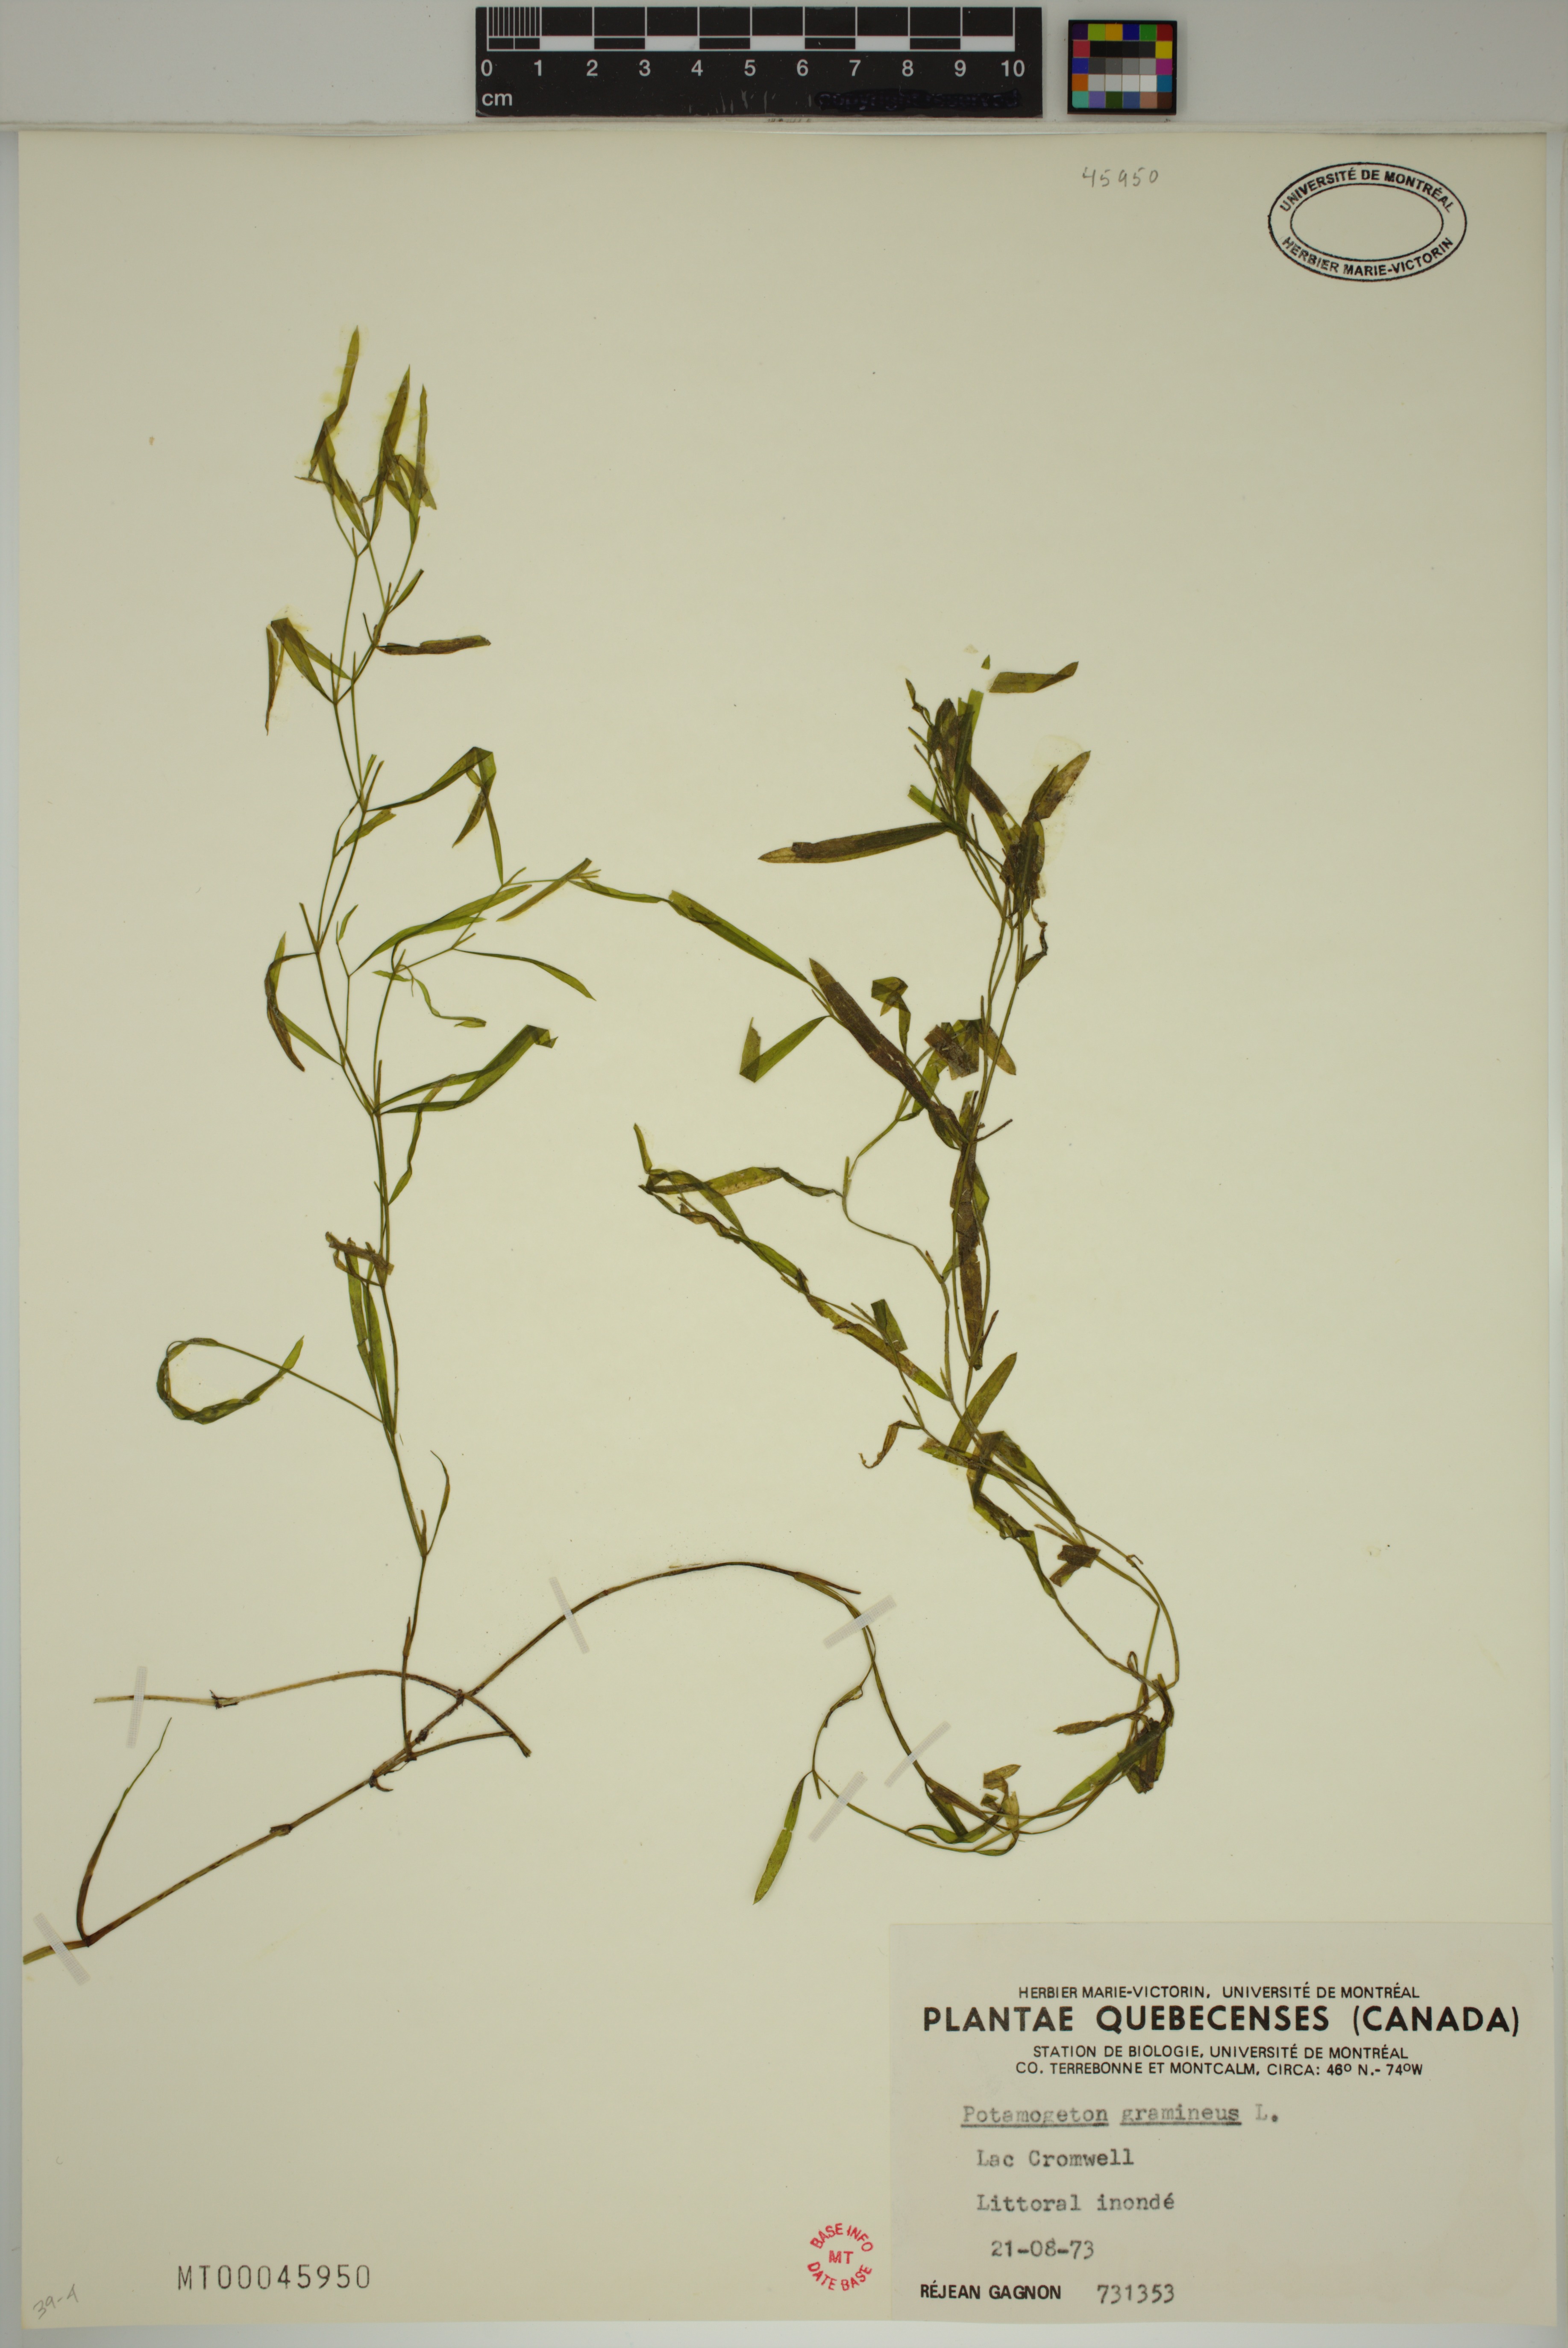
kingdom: Plantae
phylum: Tracheophyta
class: Liliopsida
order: Alismatales
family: Potamogetonaceae
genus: Potamogeton
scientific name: Potamogeton gramineus
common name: Various-leaved pondweed
